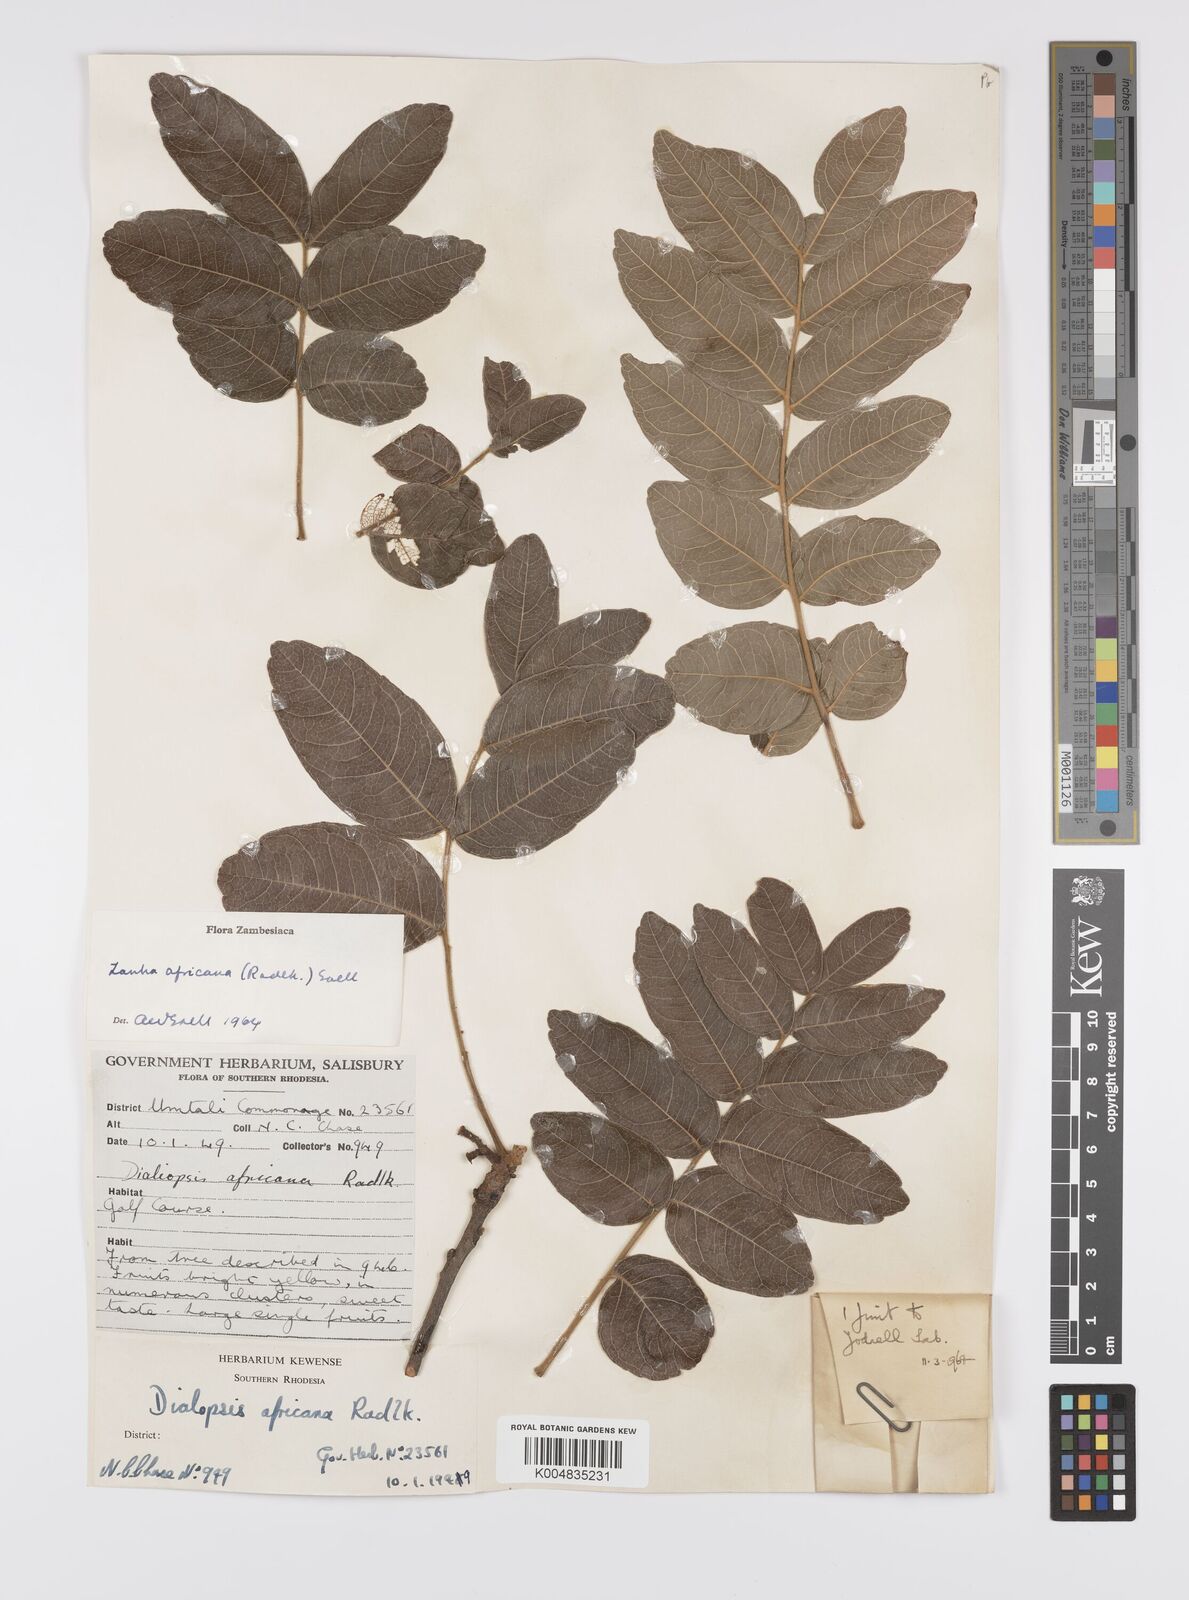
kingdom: Plantae
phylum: Tracheophyta
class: Magnoliopsida
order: Sapindales
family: Sapindaceae
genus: Zanha
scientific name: Zanha africana
